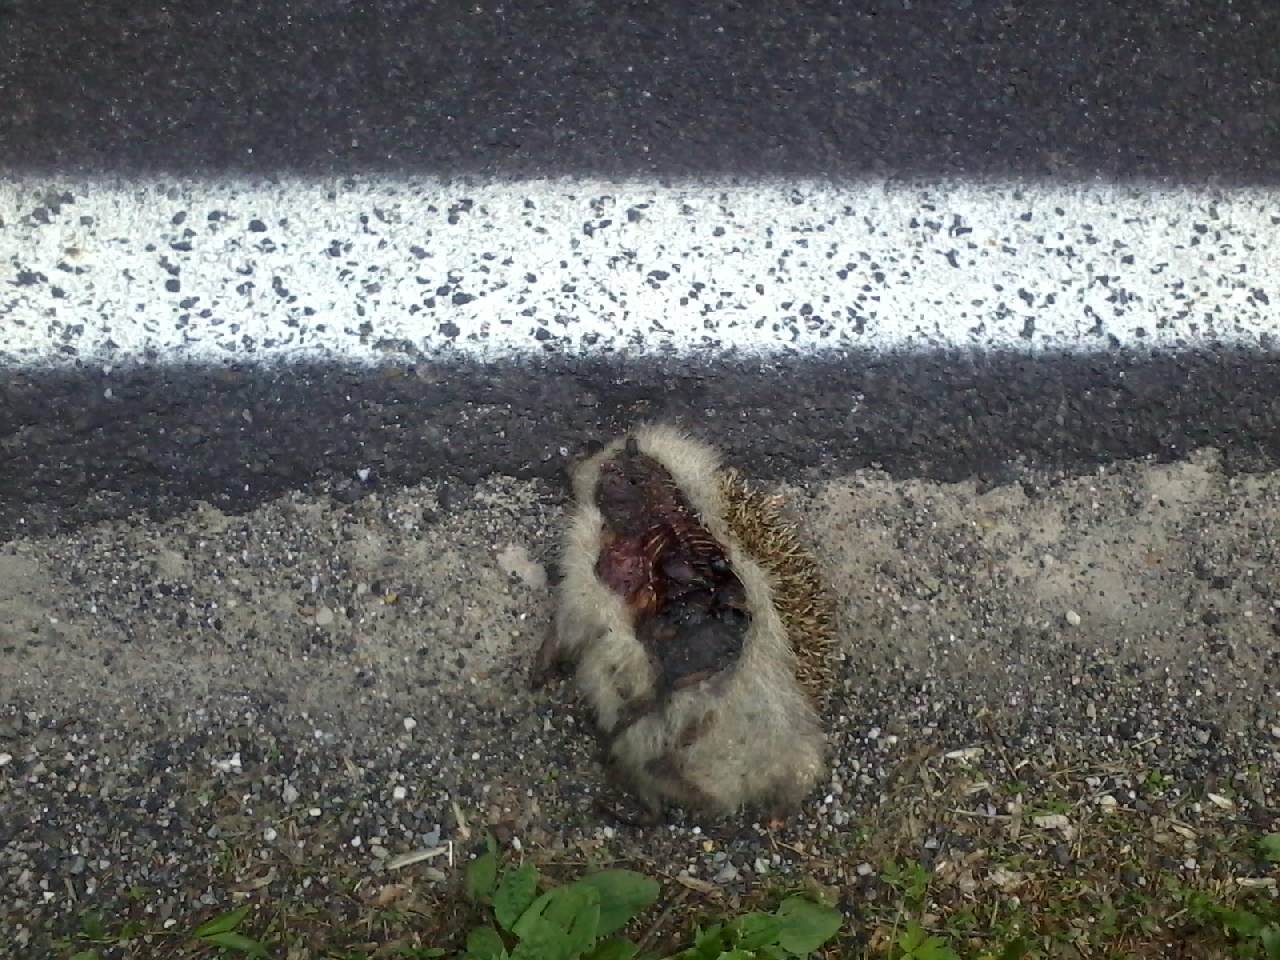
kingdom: Animalia
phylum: Chordata
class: Mammalia
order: Erinaceomorpha
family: Erinaceidae
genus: Erinaceus
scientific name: Erinaceus
